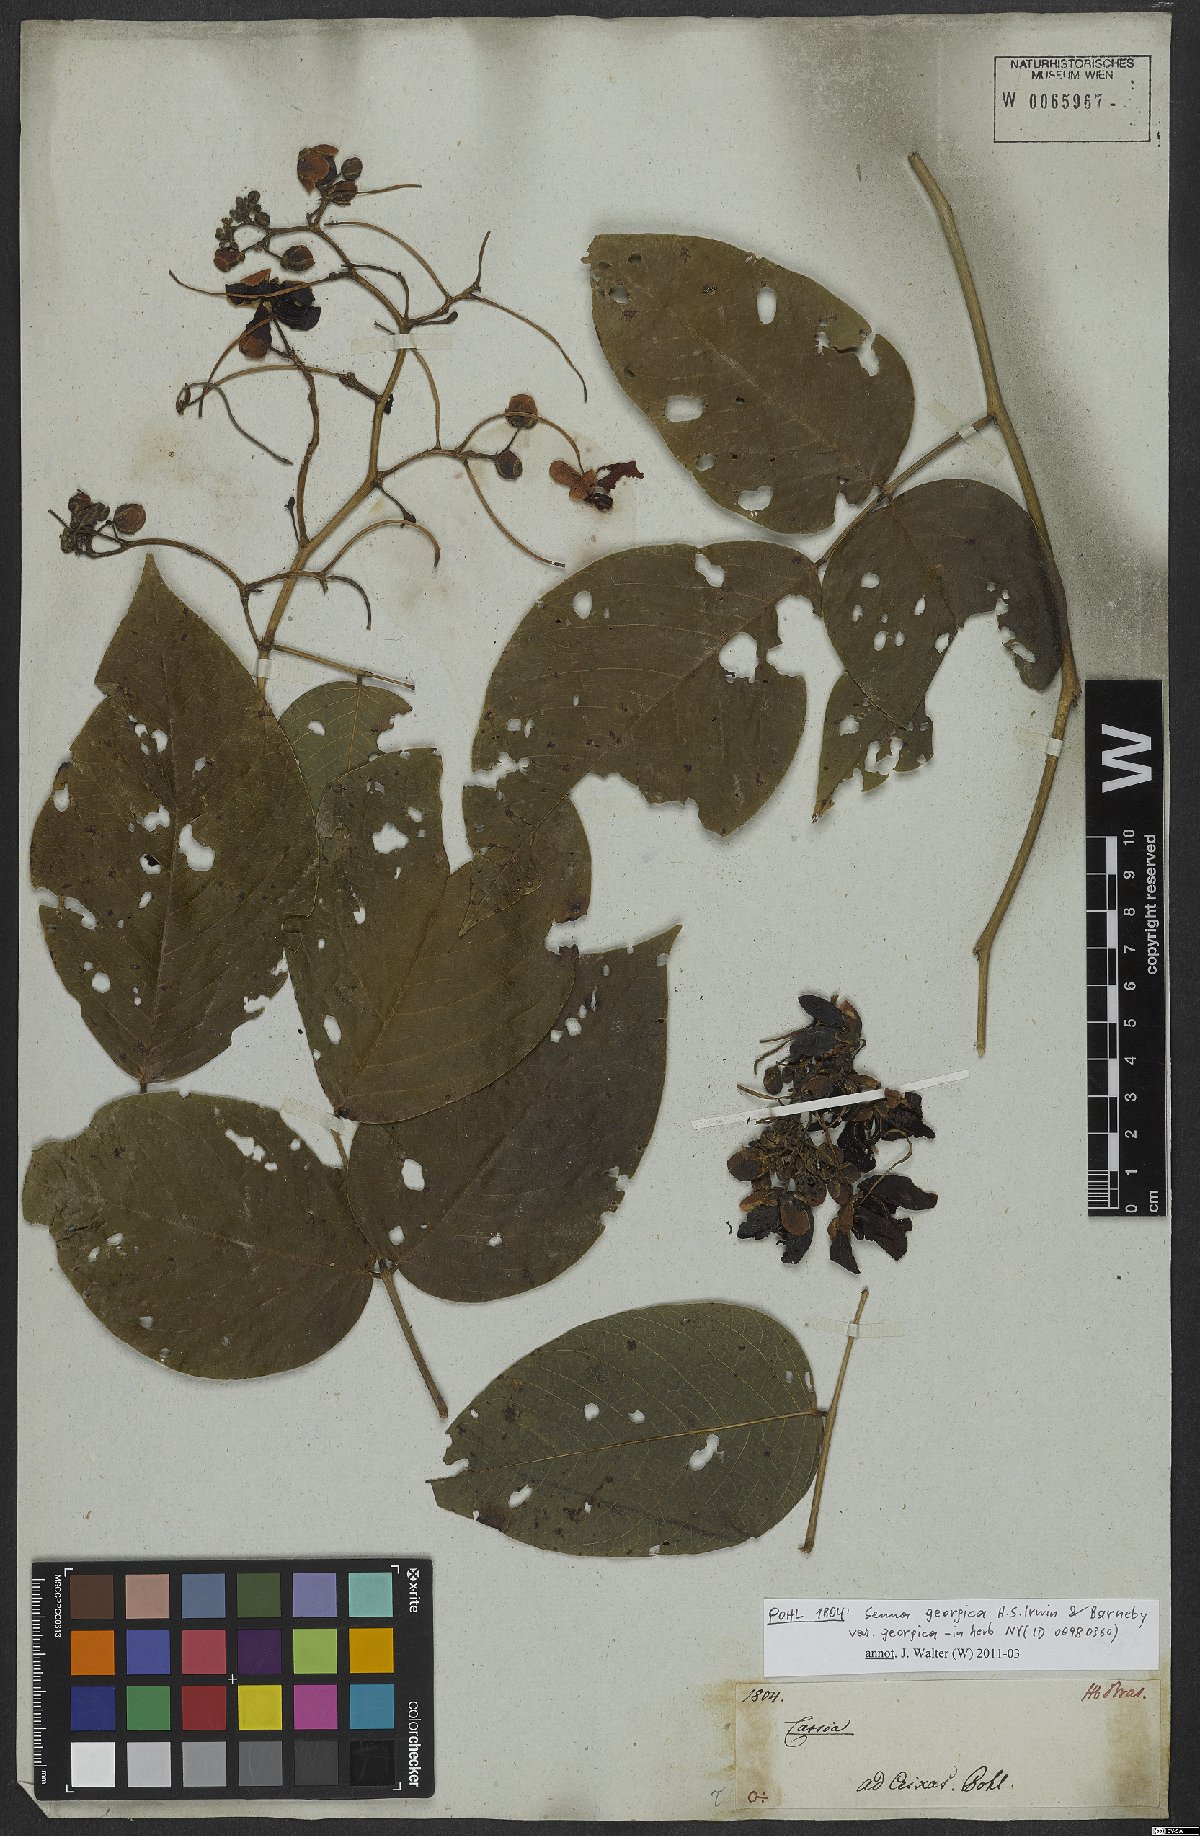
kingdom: Plantae
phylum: Tracheophyta
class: Magnoliopsida
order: Fabales
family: Fabaceae
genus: Senna
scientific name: Senna bacillaris
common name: West indian showertree
